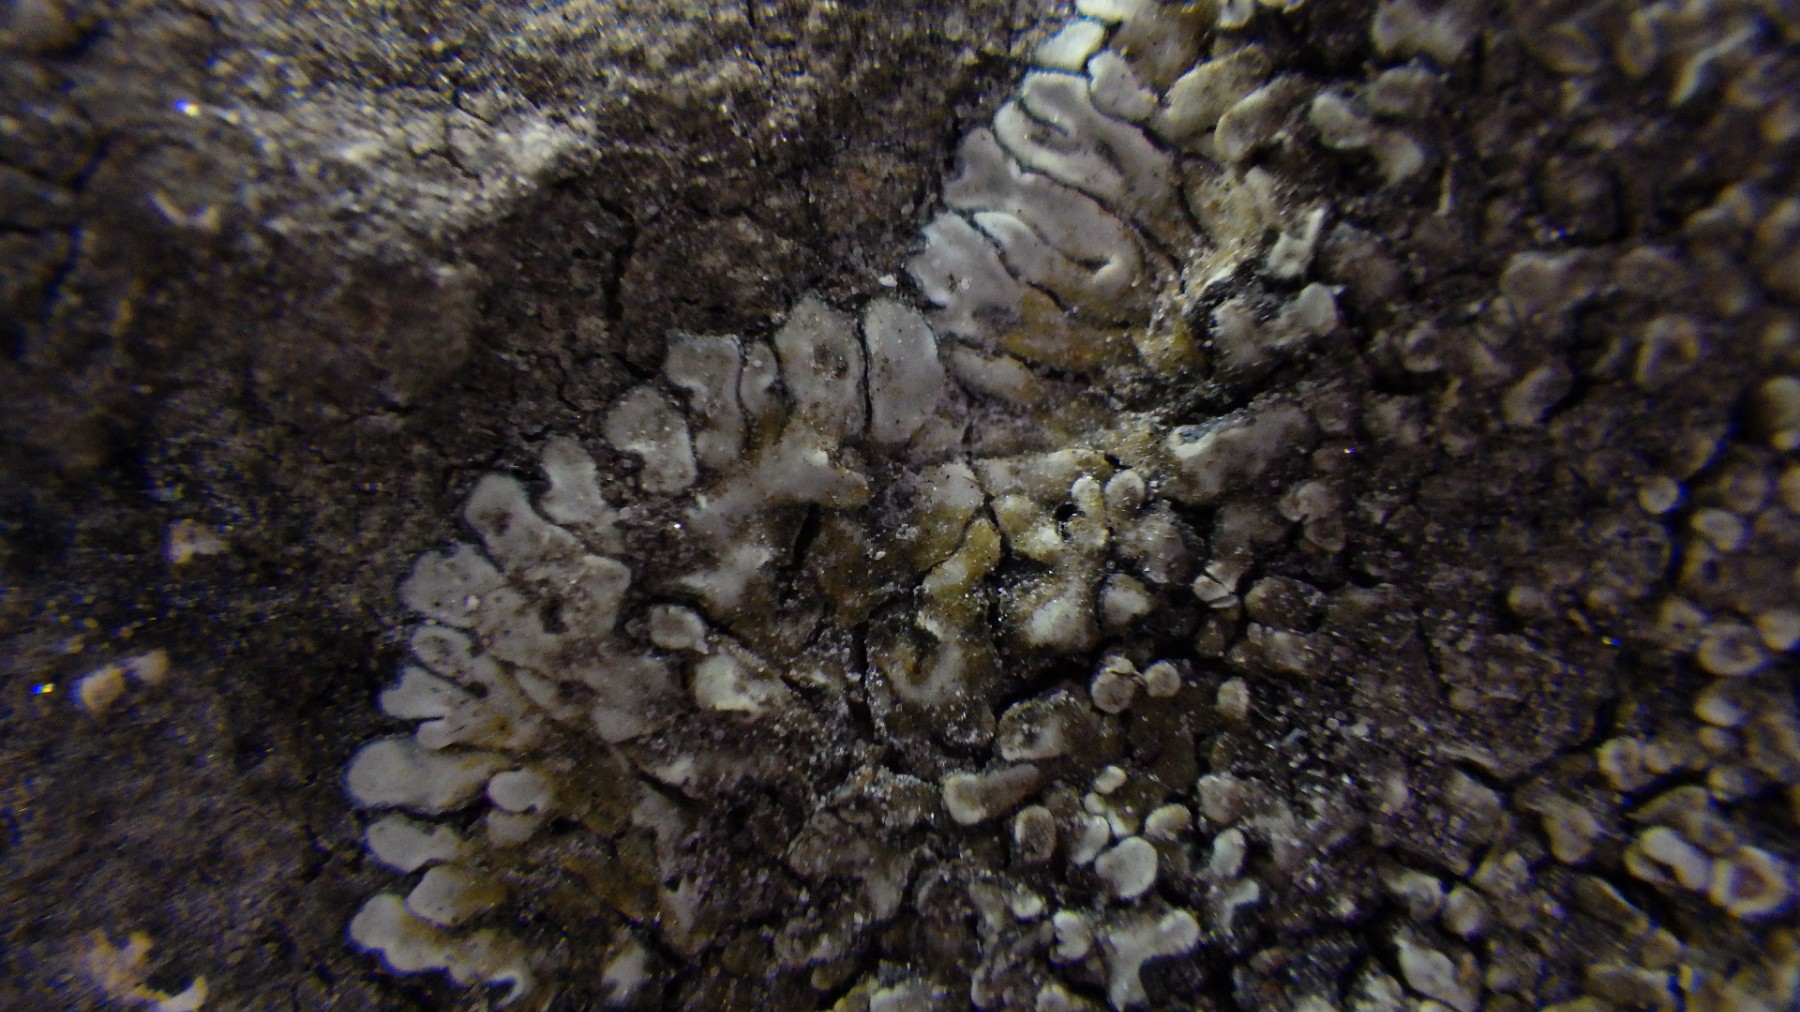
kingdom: Fungi
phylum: Ascomycota
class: Lecanoromycetes
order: Lecanorales
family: Lecanoraceae
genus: Protoparmeliopsis
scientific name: Protoparmeliopsis muralis
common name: randfliget kantskivelav
